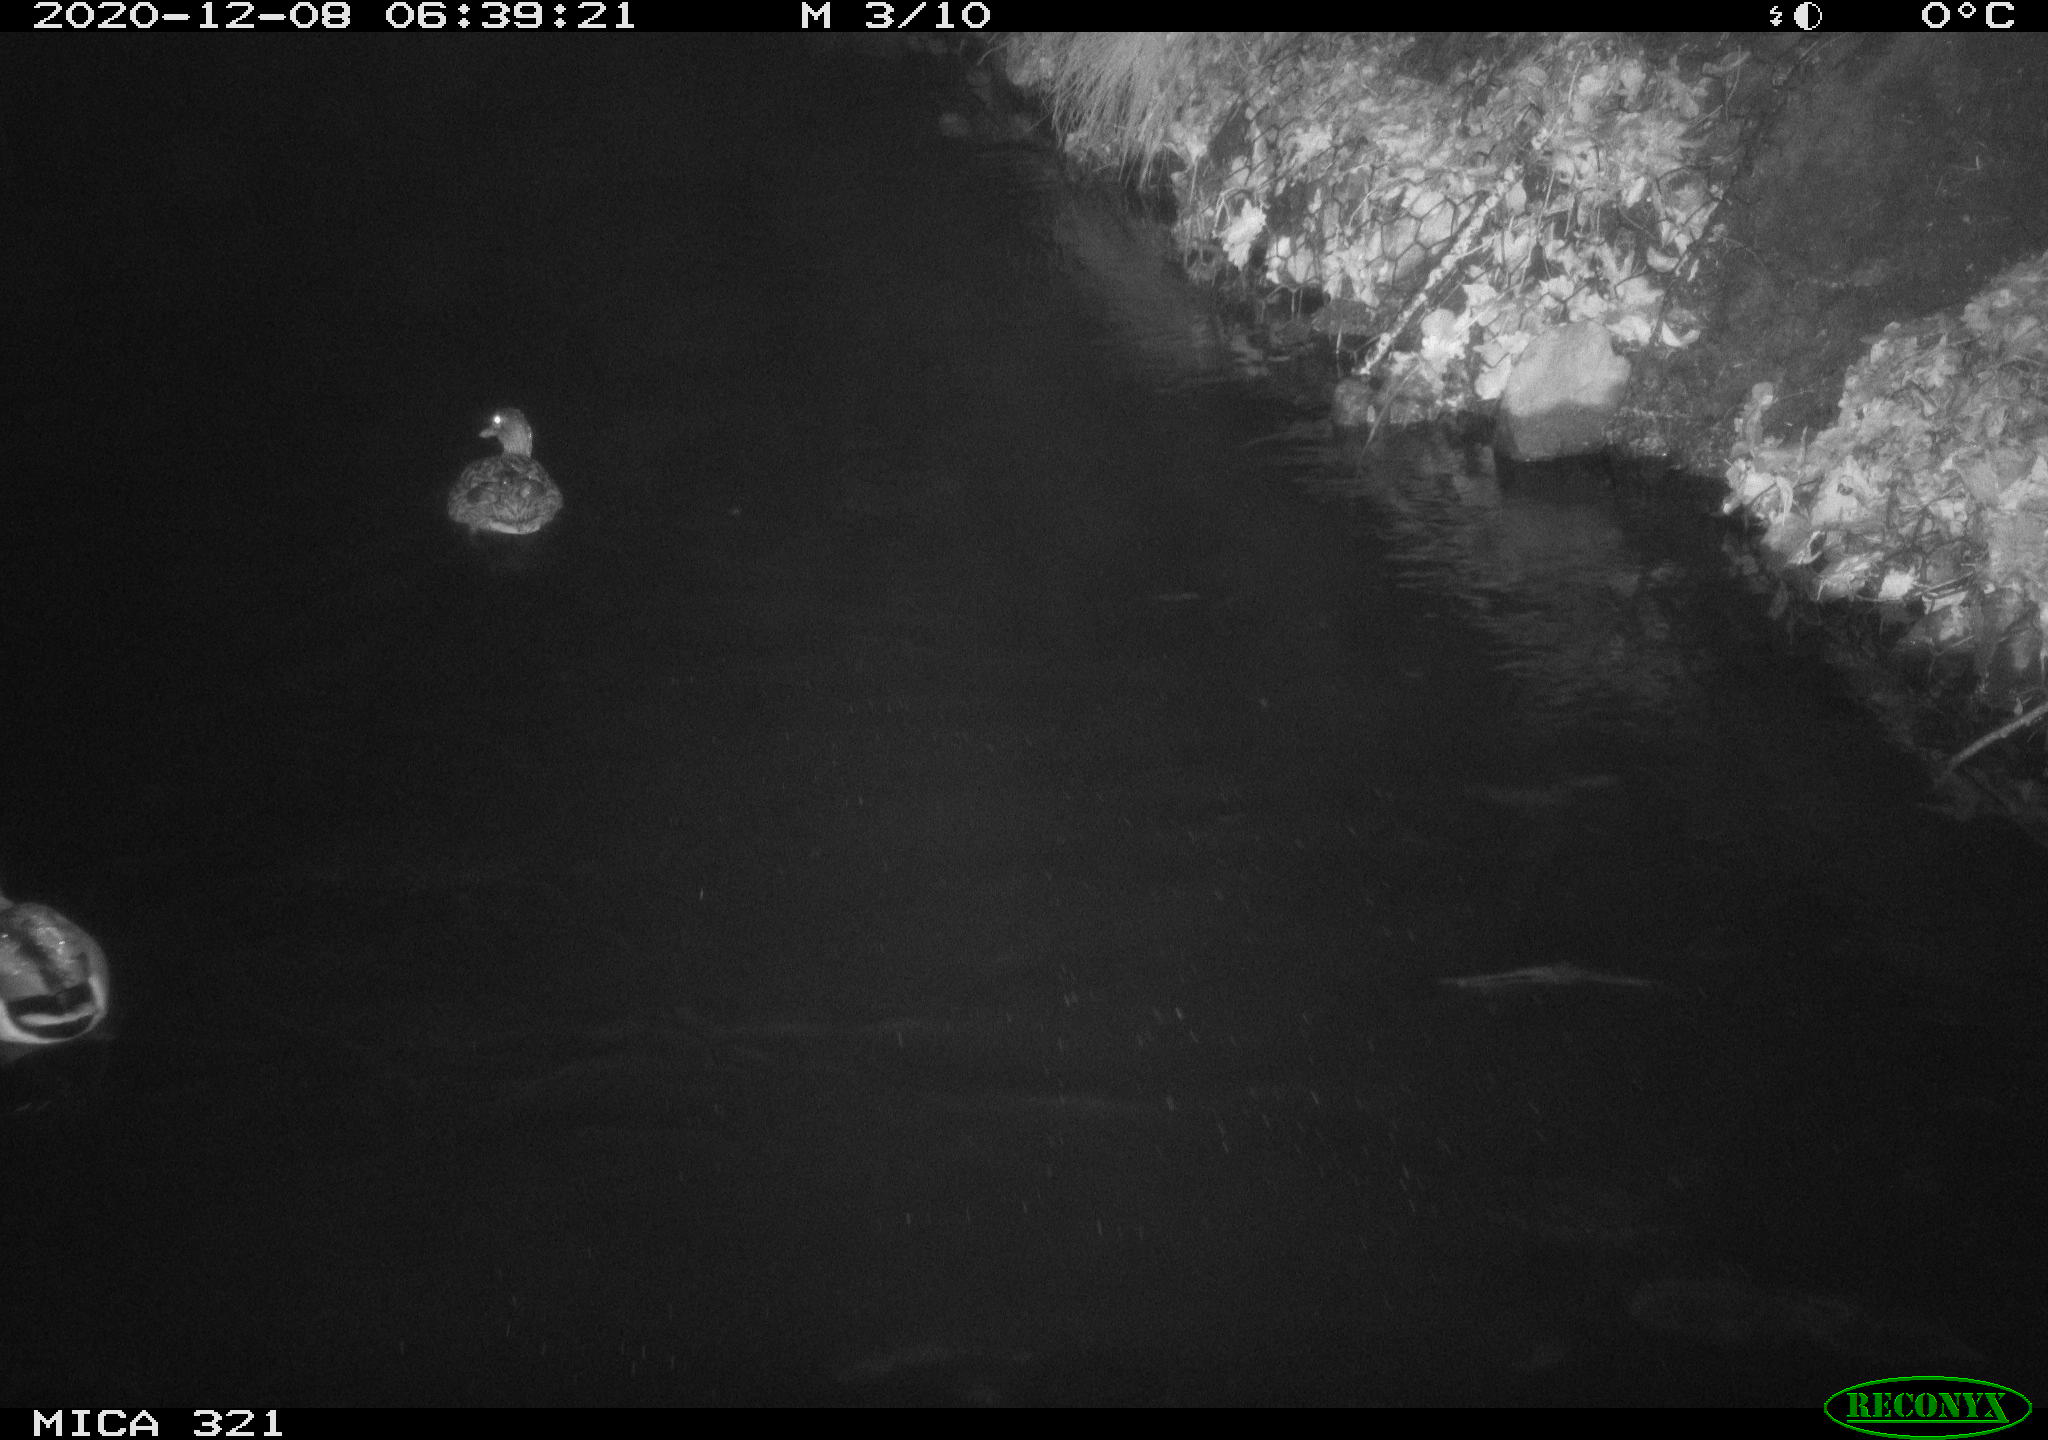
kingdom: Animalia
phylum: Chordata
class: Aves
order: Anseriformes
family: Anatidae
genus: Anas
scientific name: Anas platyrhynchos
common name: Mallard
